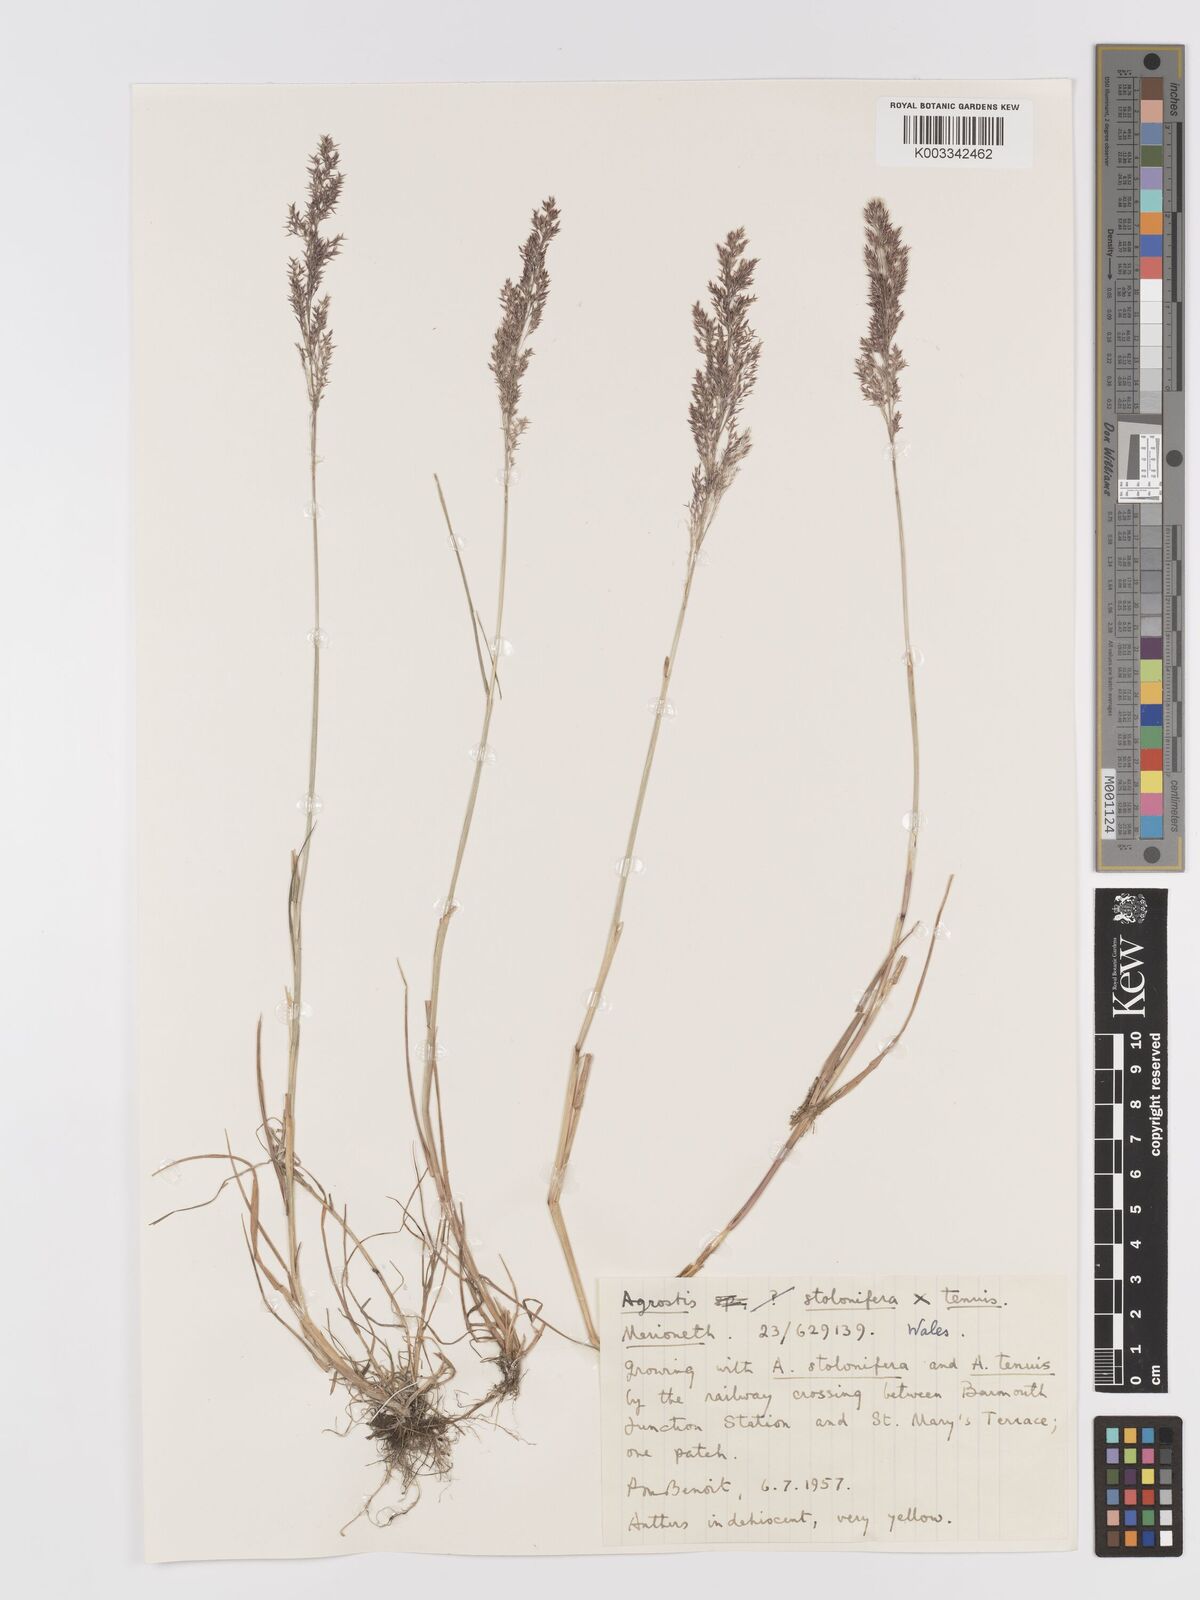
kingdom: Plantae
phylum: Tracheophyta
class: Liliopsida
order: Poales
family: Poaceae
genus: Agrostis
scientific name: Agrostis capillaris
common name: Colonial bentgrass
